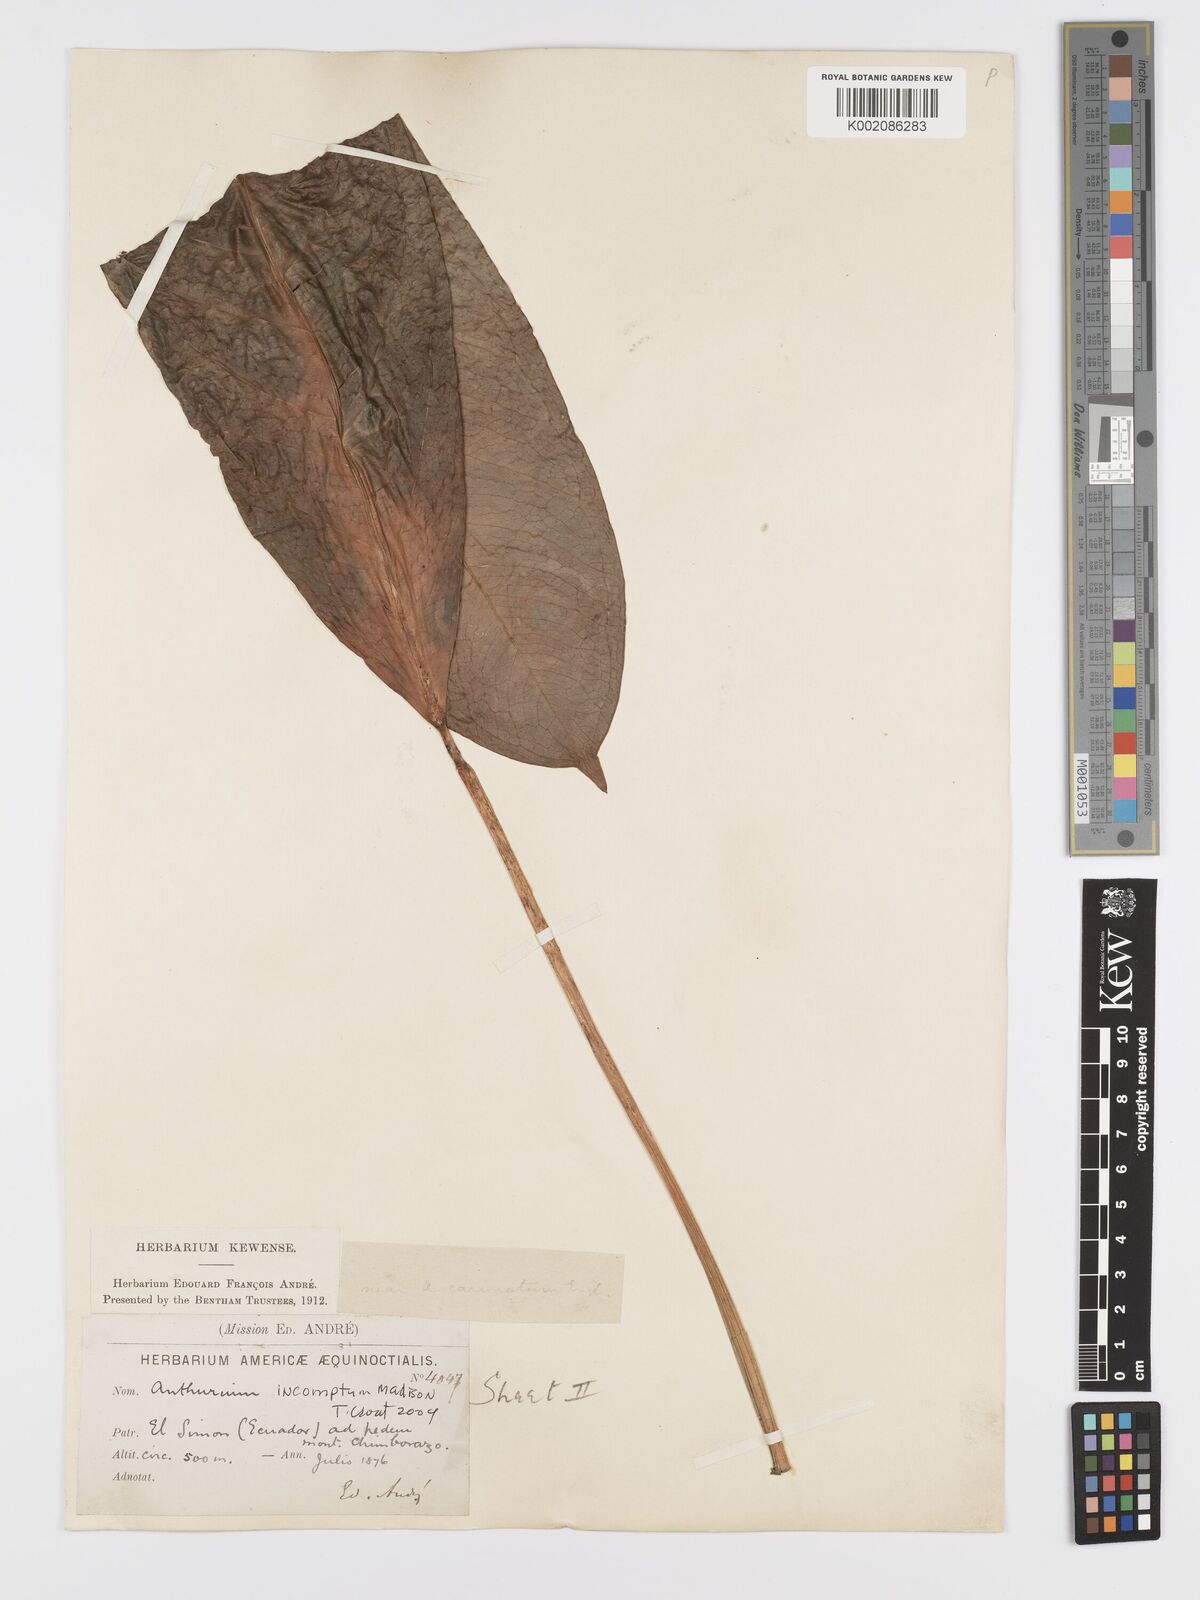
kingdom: Plantae
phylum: Tracheophyta
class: Liliopsida
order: Alismatales
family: Araceae
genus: Anthurium
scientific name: Anthurium incomptum
